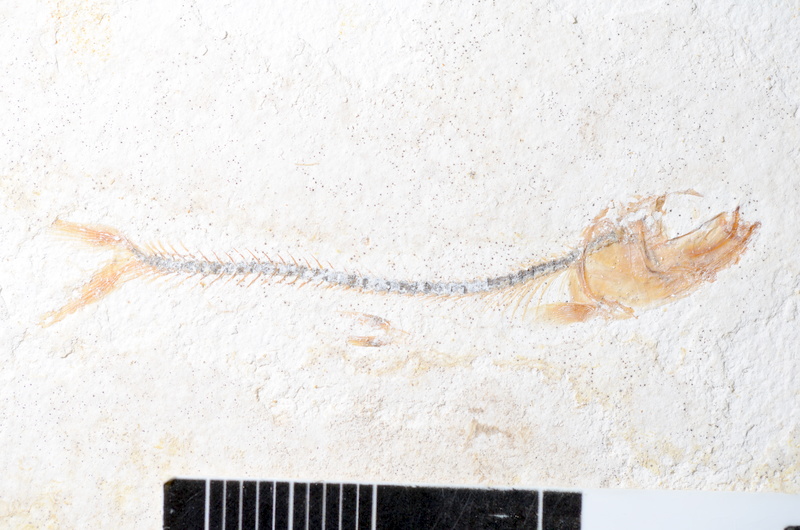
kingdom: Animalia
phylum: Chordata
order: Salmoniformes
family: Orthogonikleithridae
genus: Orthogonikleithrus
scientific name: Orthogonikleithrus hoelli
